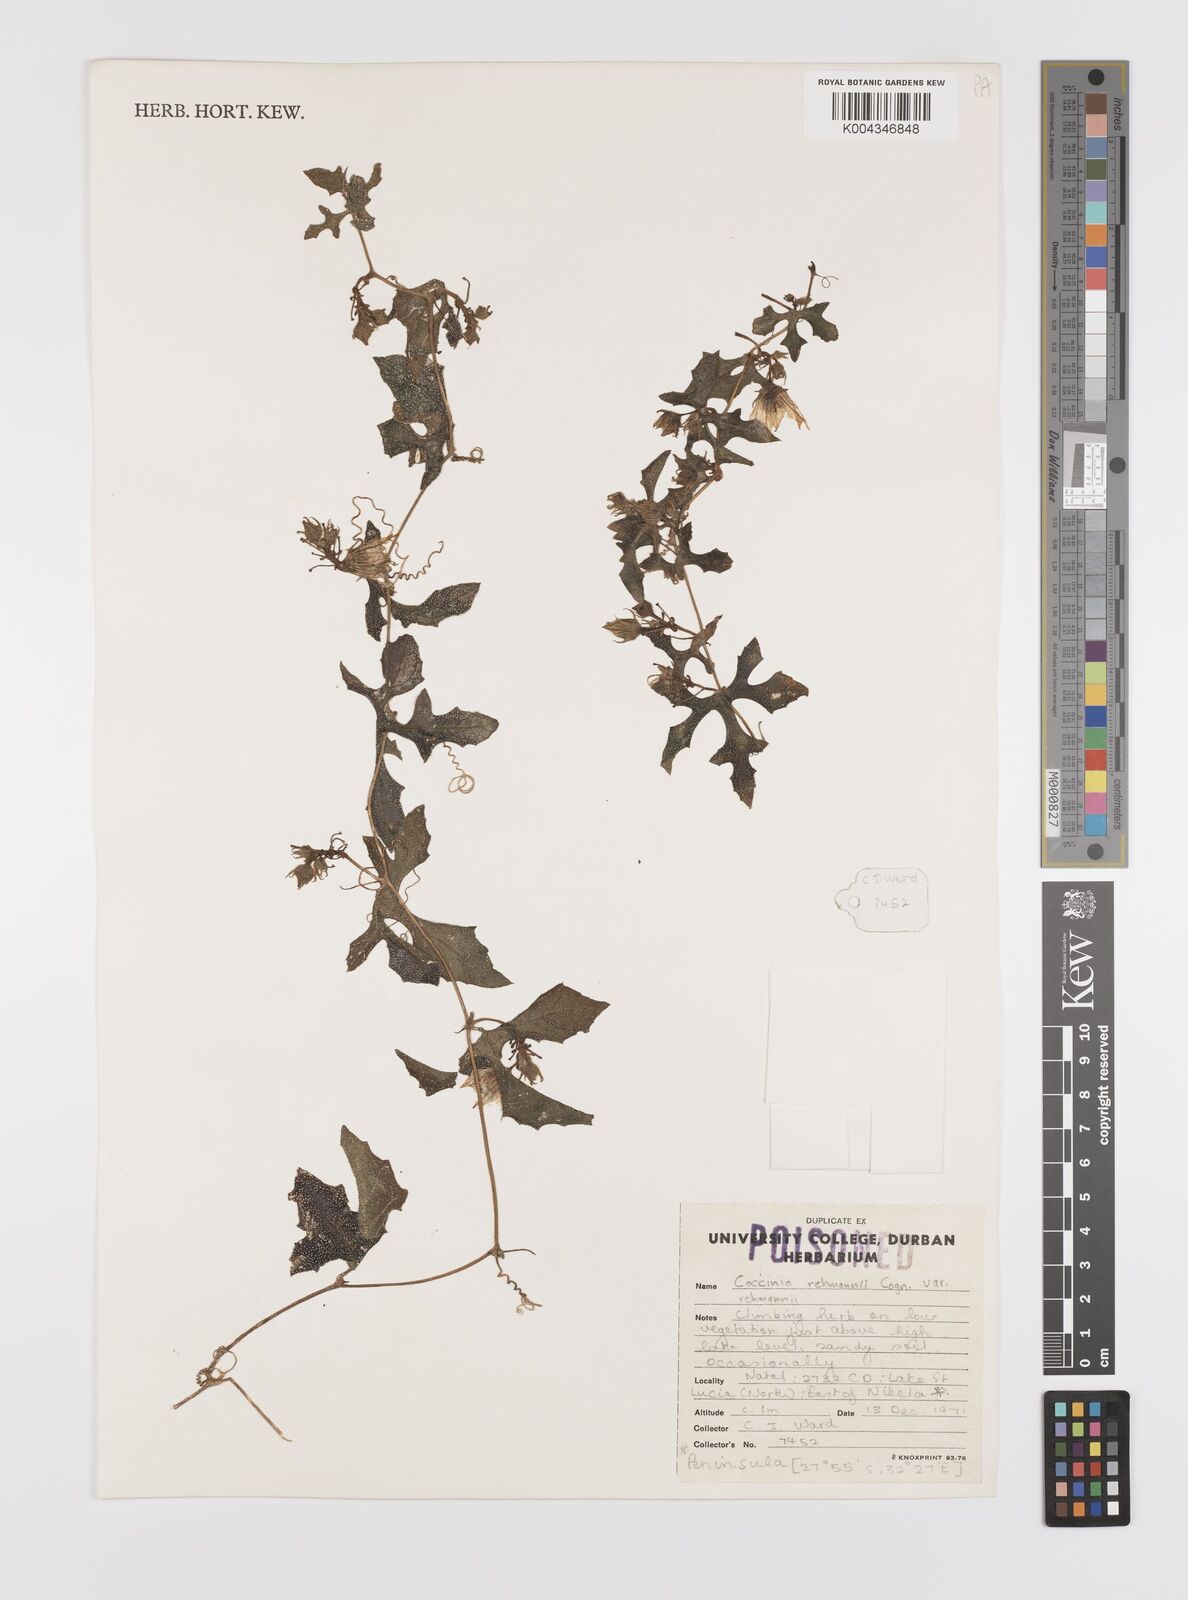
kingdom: Plantae
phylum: Tracheophyta
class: Magnoliopsida
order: Cucurbitales
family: Cucurbitaceae
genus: Coccinia
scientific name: Coccinia rehmannii
